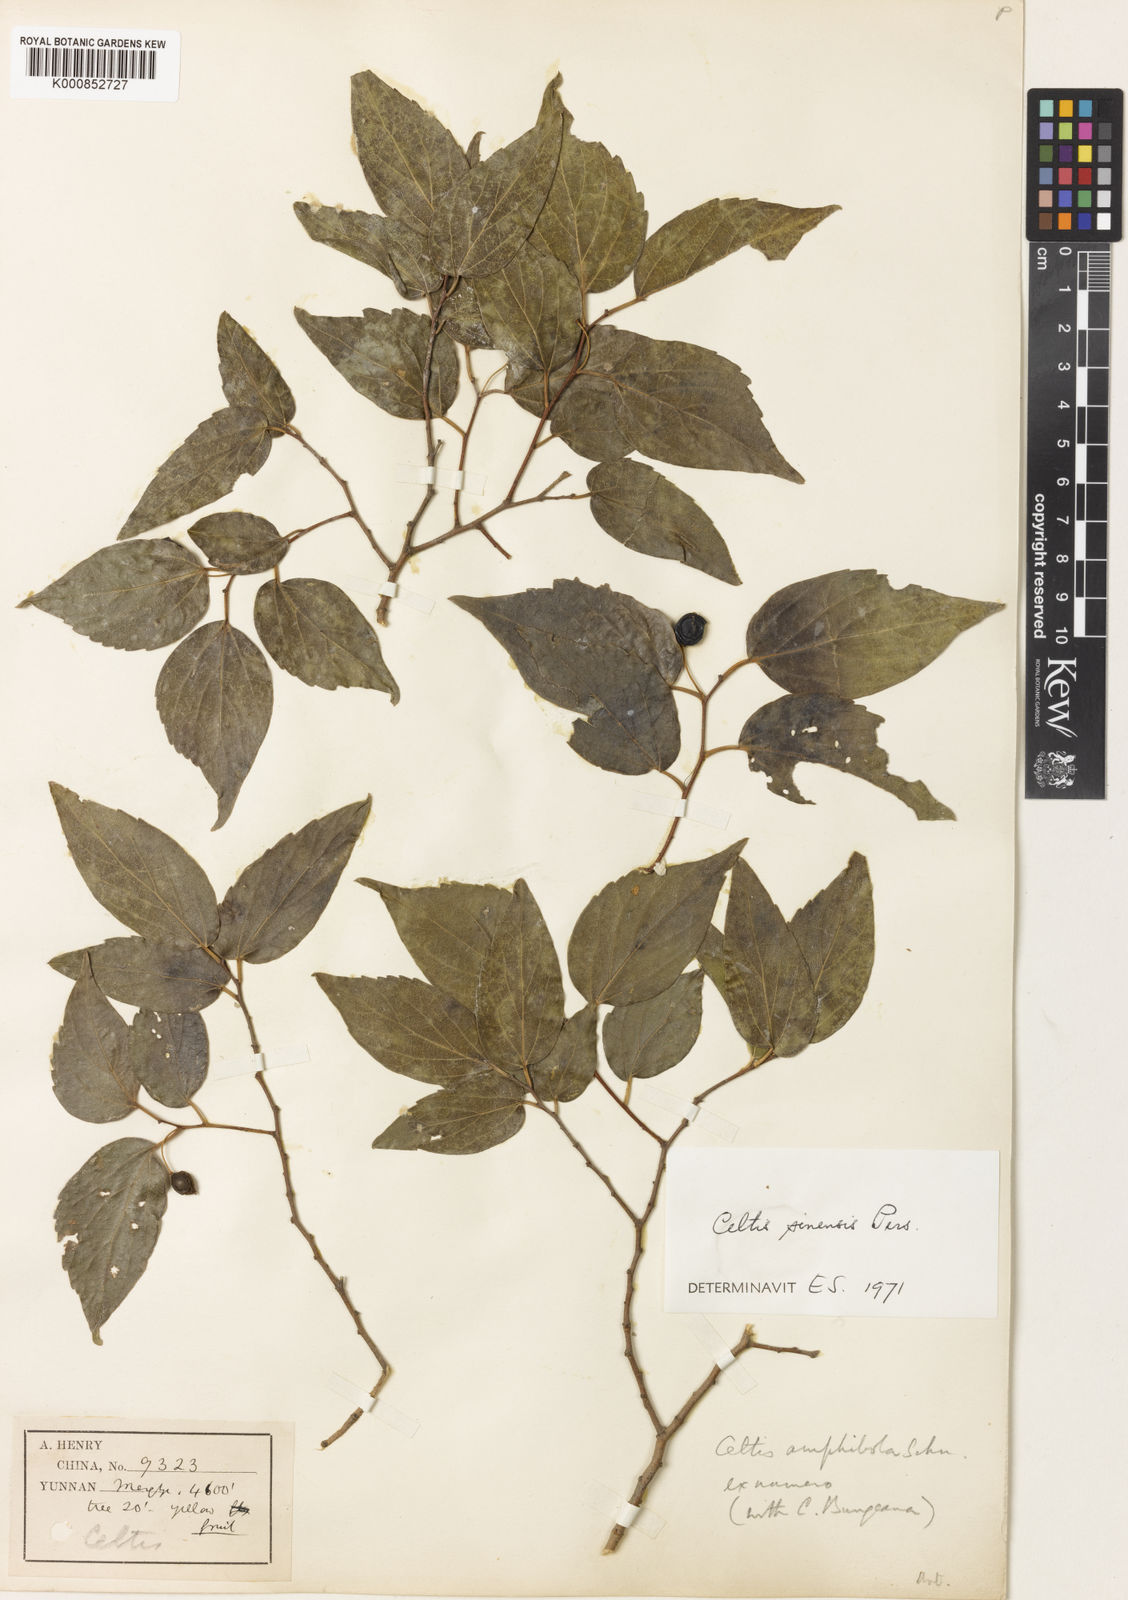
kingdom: Plantae
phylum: Tracheophyta
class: Magnoliopsida
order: Rosales
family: Cannabaceae
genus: Celtis
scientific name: Celtis sinensis
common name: Chinese hackberry
